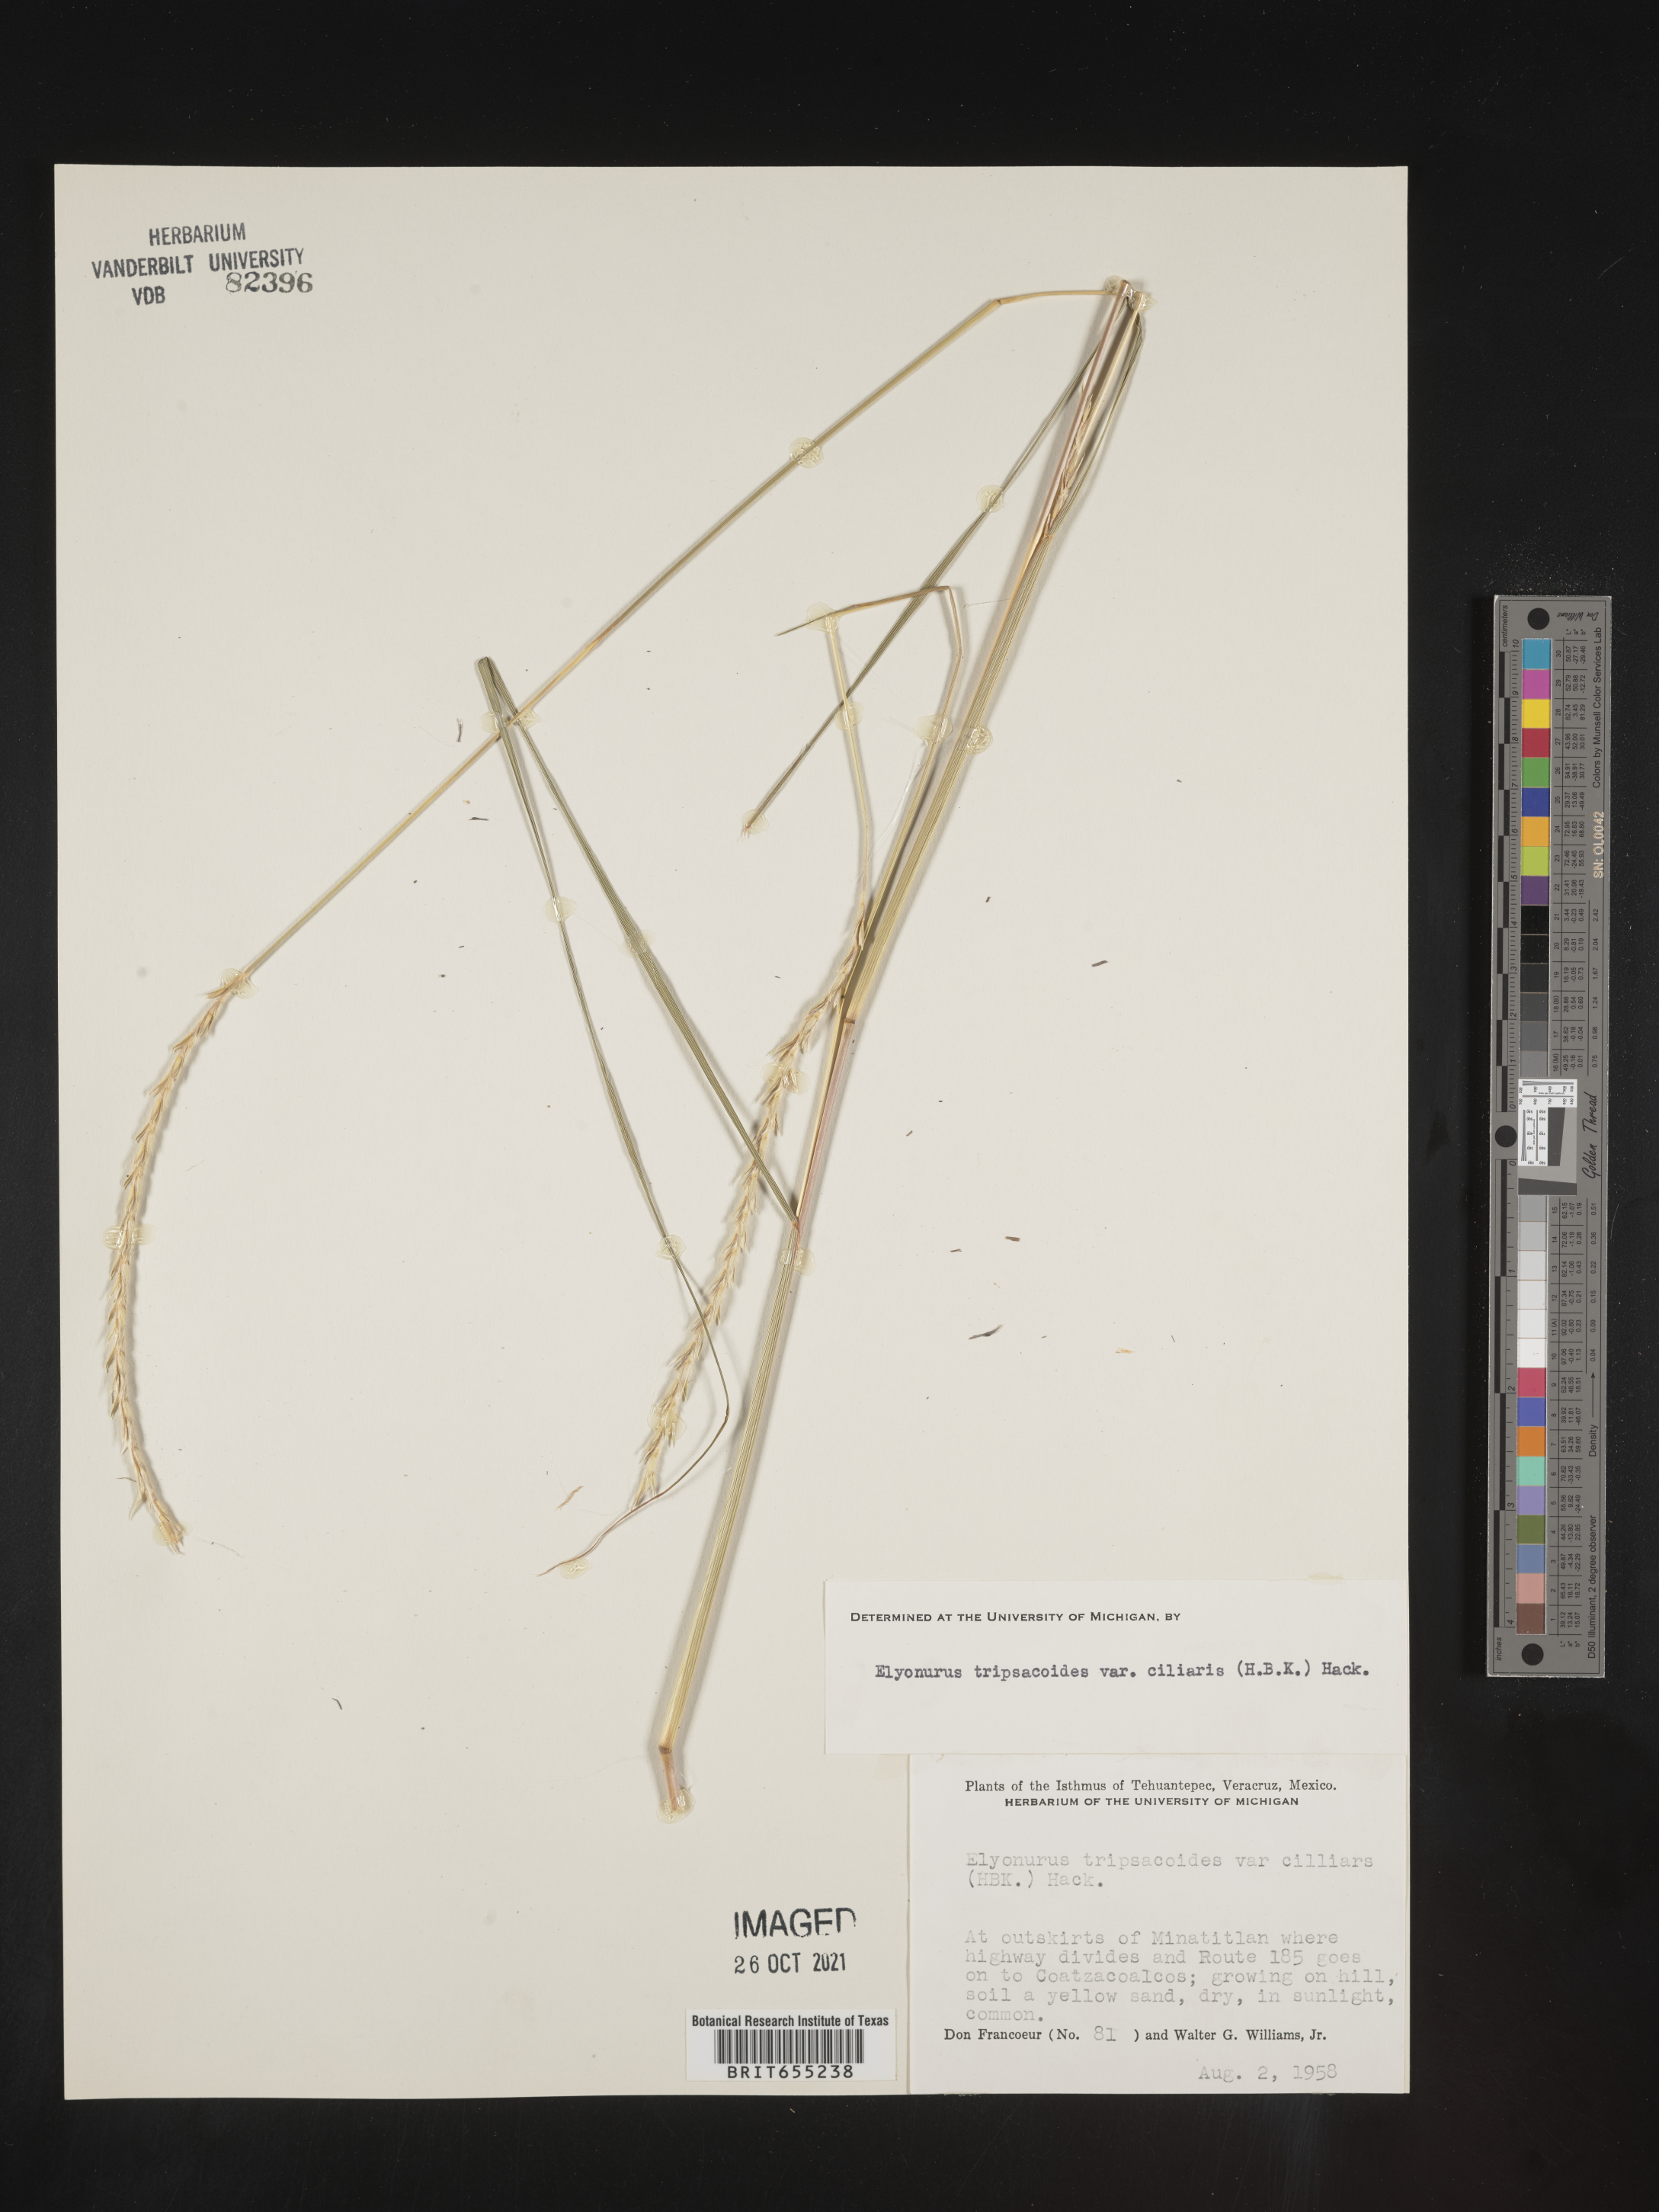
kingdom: Plantae
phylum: Tracheophyta
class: Liliopsida
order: Poales
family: Poaceae
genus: Elionurus
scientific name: Elionurus
